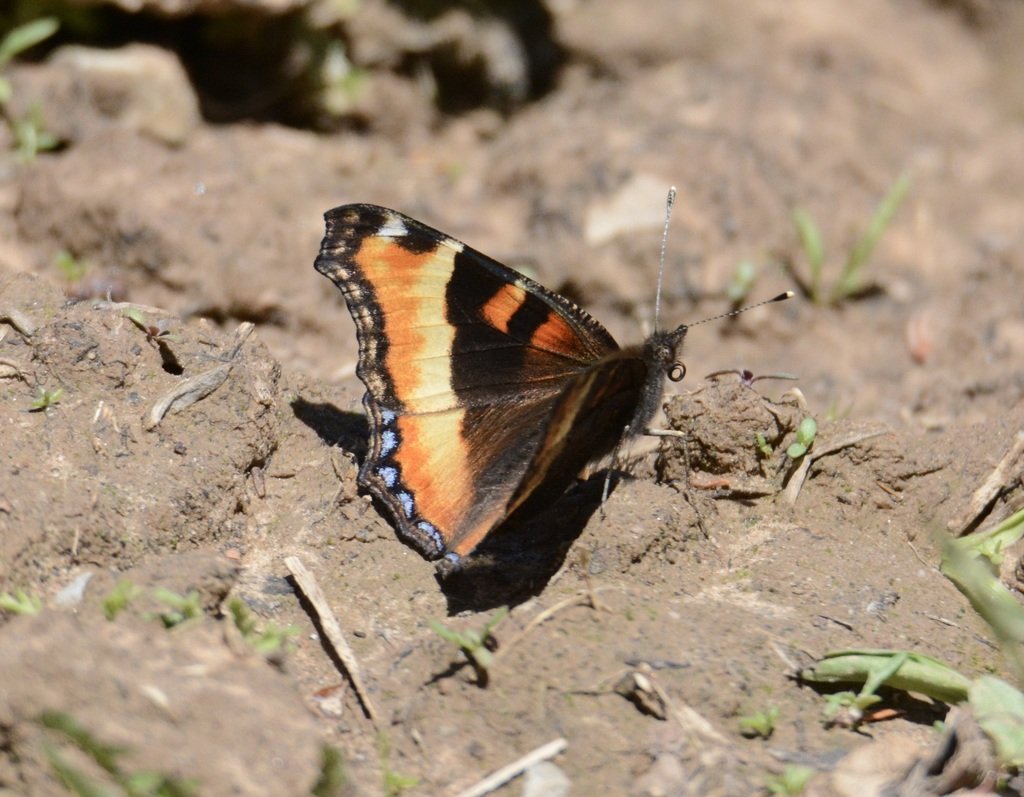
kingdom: Animalia
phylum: Arthropoda
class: Insecta
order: Lepidoptera
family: Nymphalidae
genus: Aglais
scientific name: Aglais milberti
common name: Milbert's Tortoiseshell
